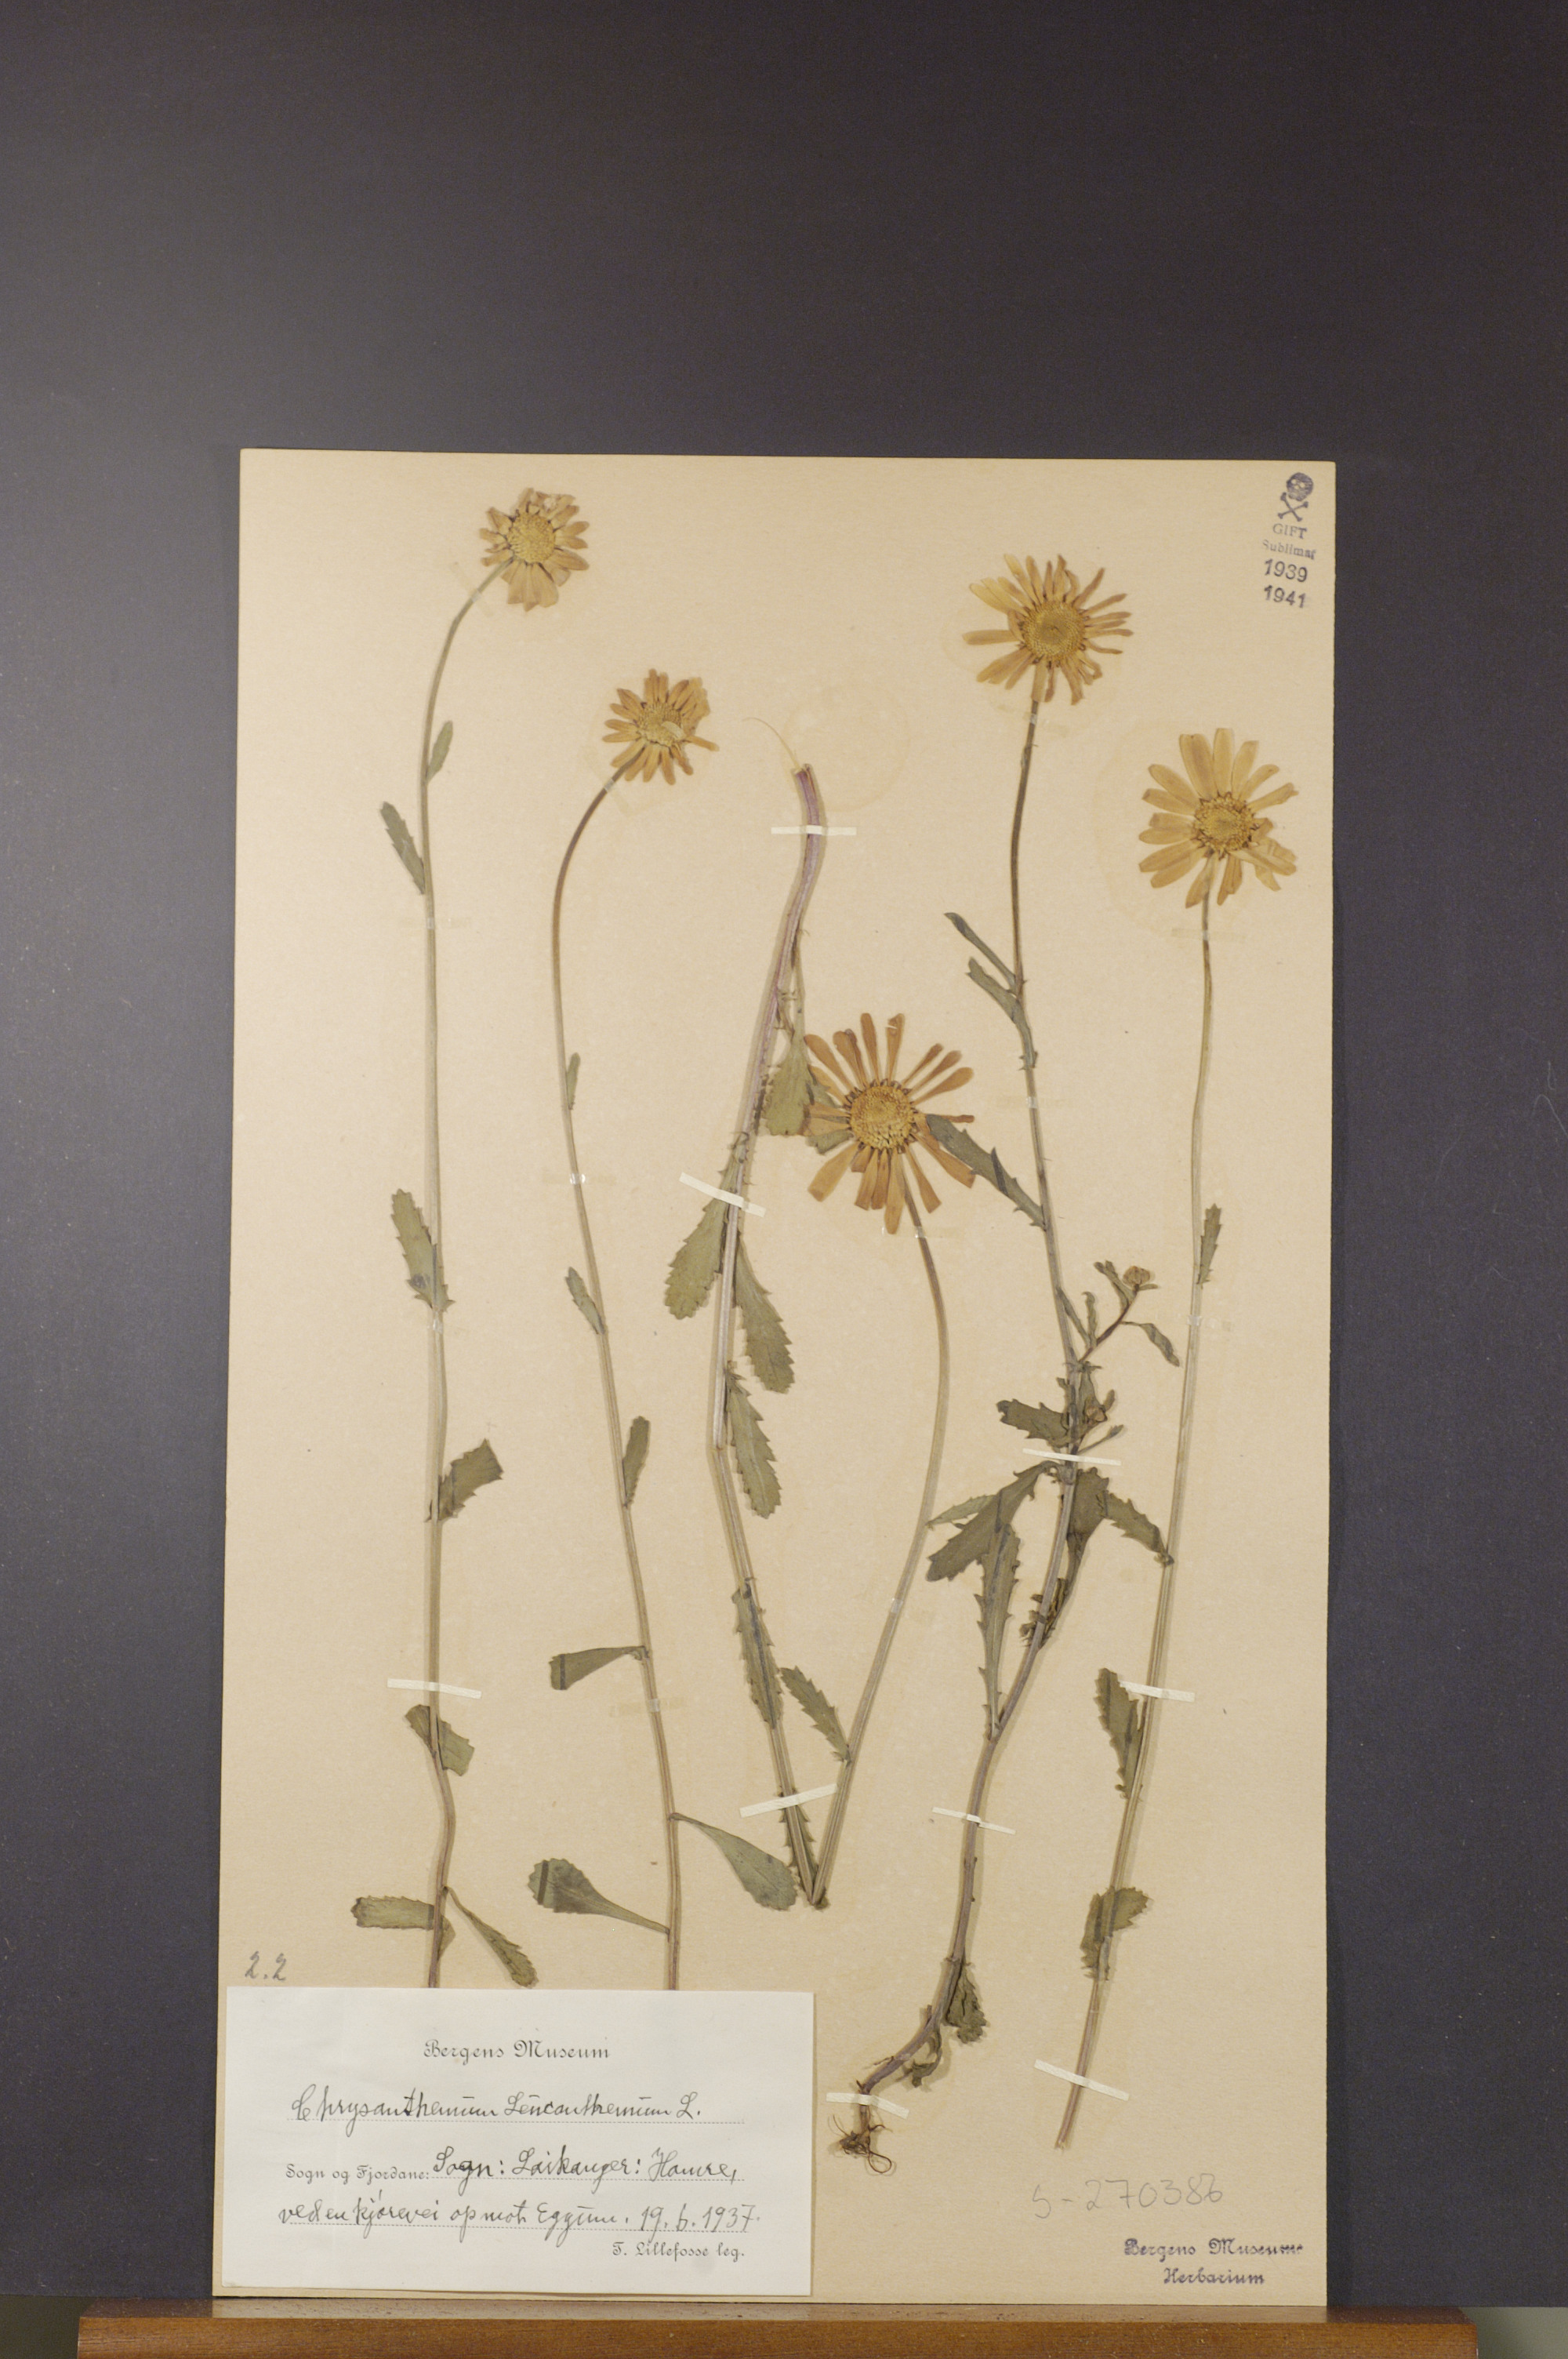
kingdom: Plantae
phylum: Tracheophyta
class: Magnoliopsida
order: Asterales
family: Asteraceae
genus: Leucanthemum
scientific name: Leucanthemum vulgare
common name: Oxeye daisy
